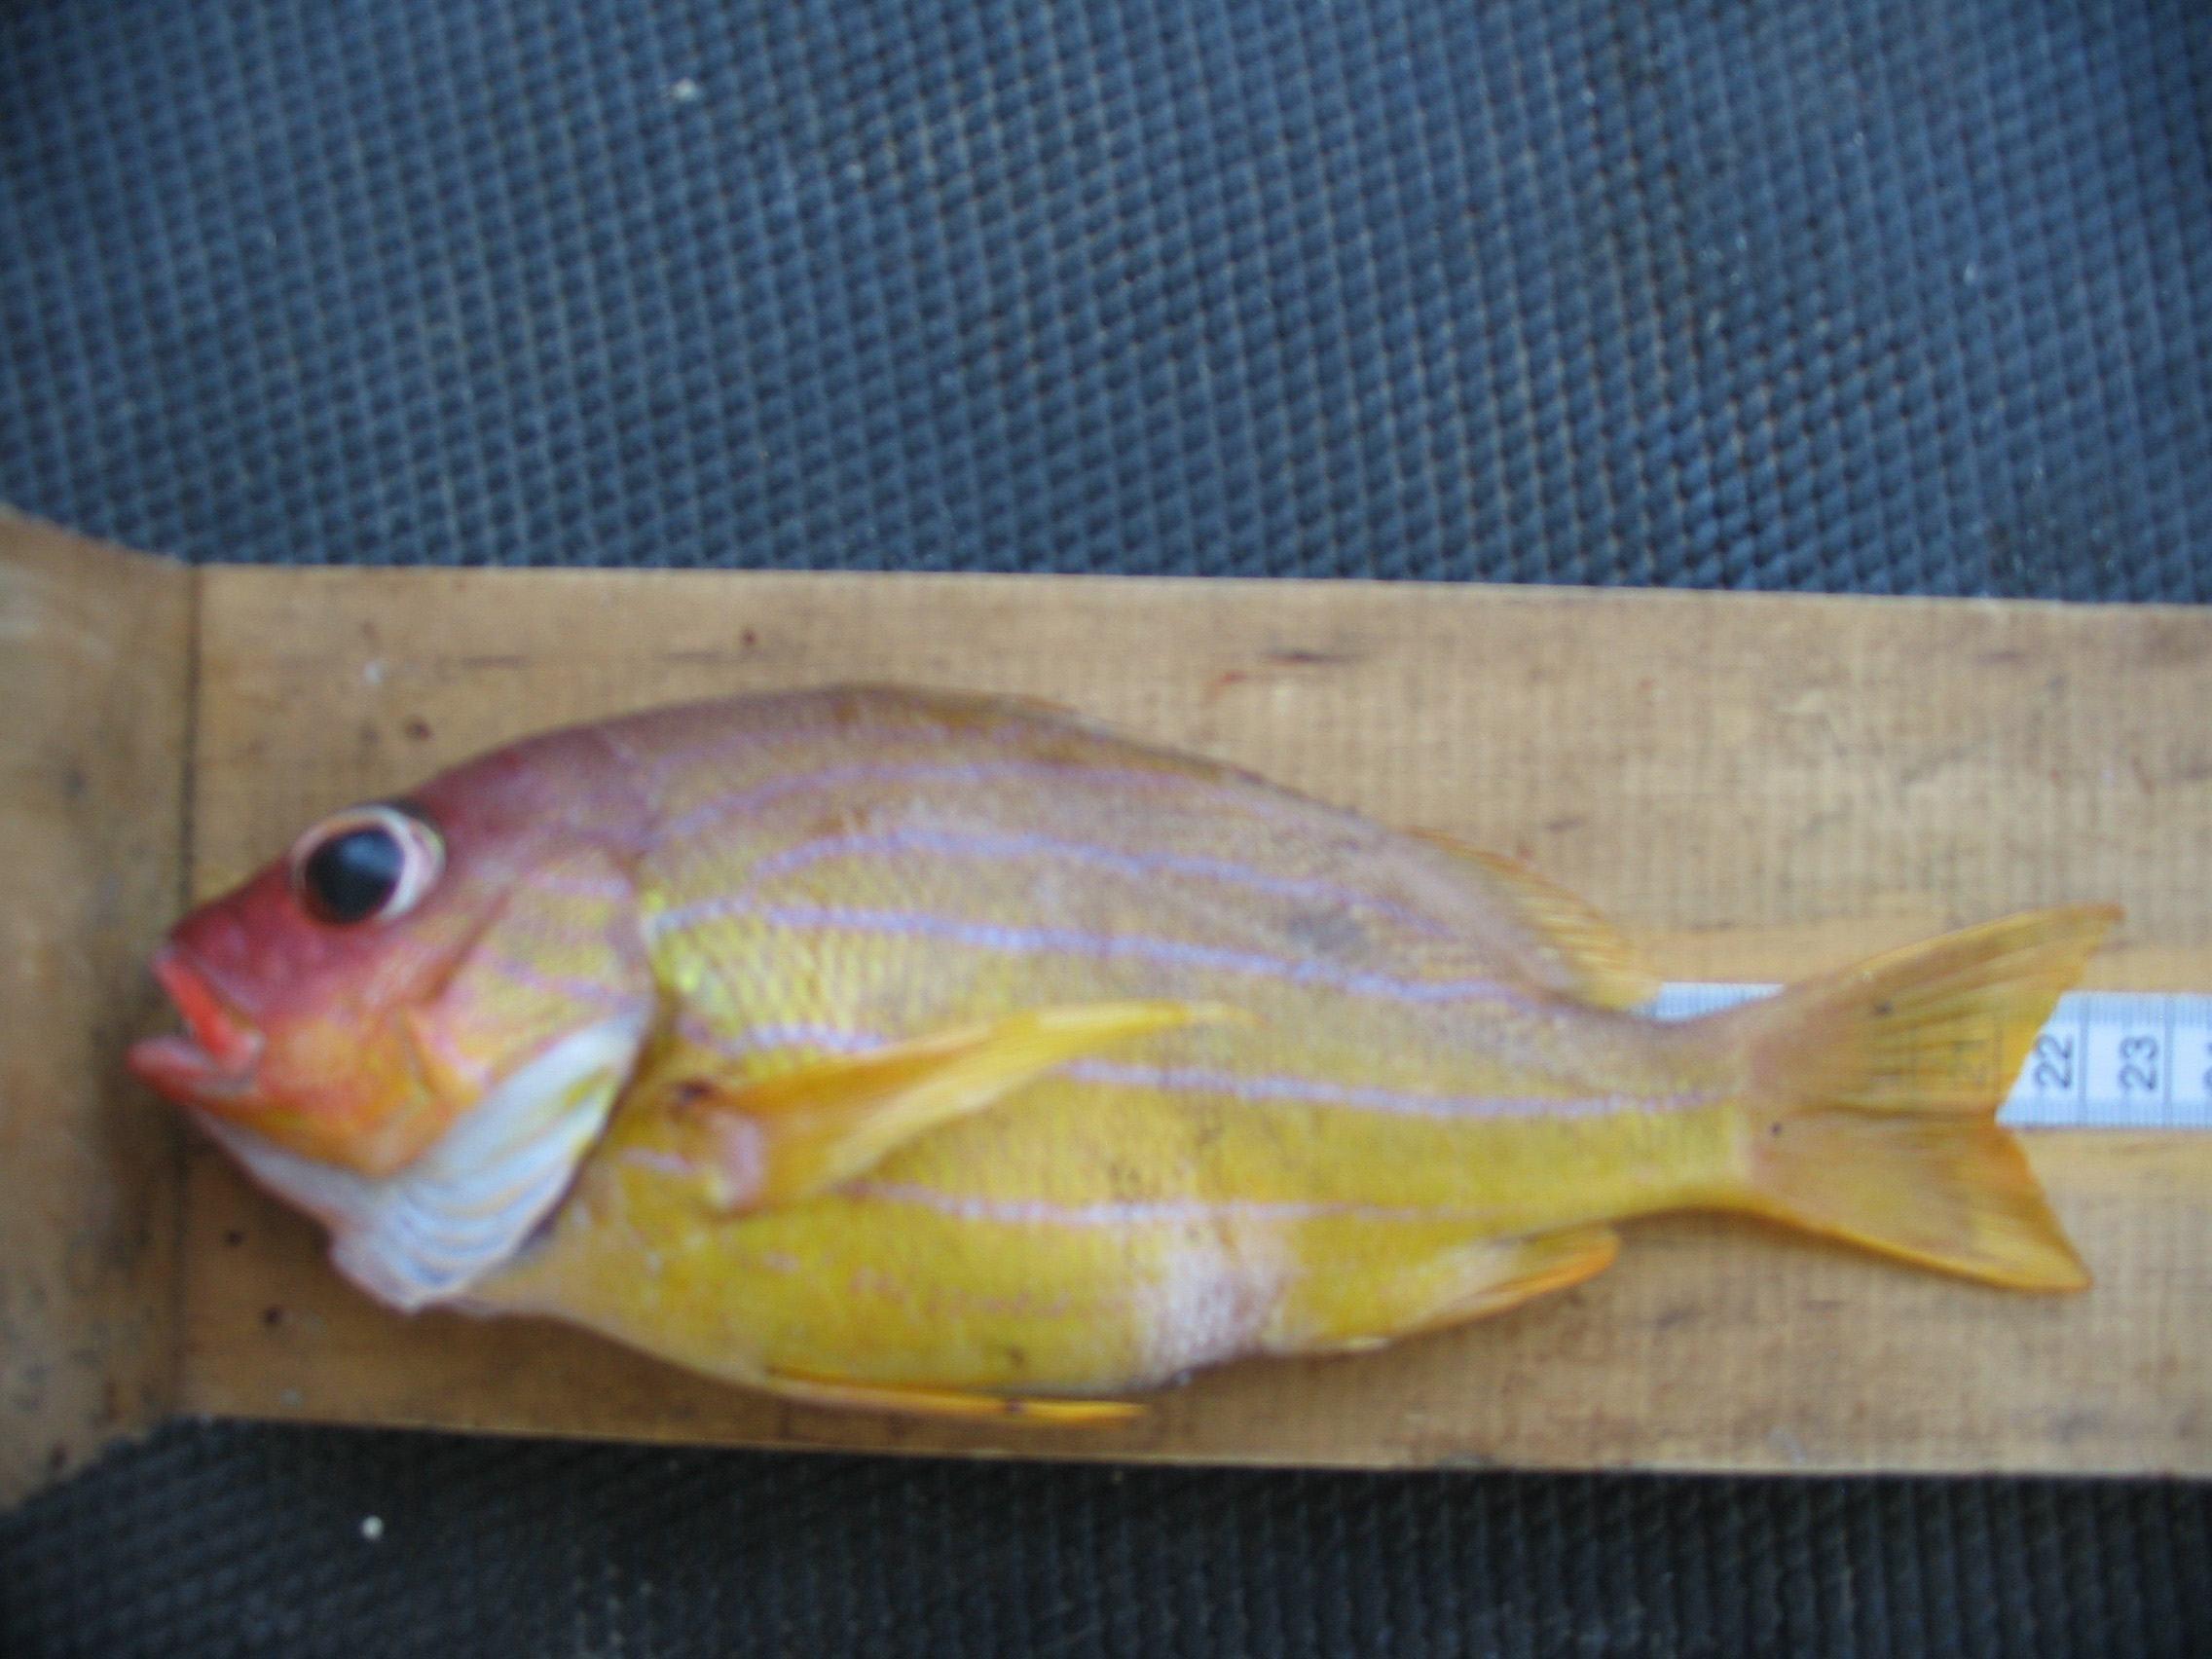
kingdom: Animalia
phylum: Chordata
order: Perciformes
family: Lutjanidae
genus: Lutjanus
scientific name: Lutjanus notatus
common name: Bluestriped snapper
